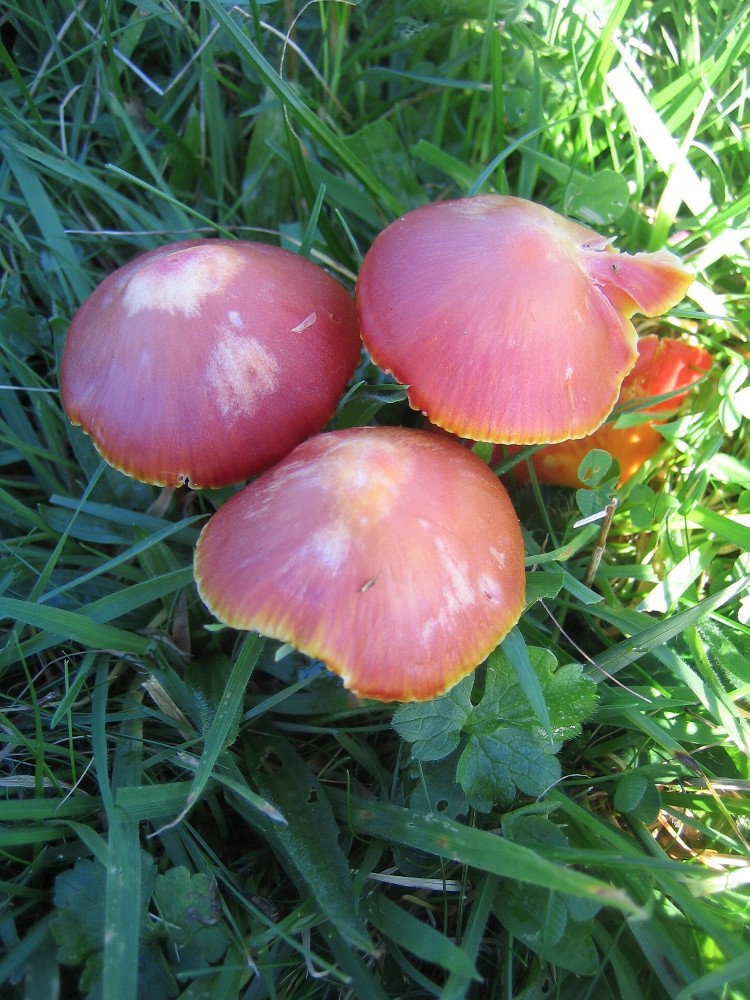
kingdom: Fungi
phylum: Basidiomycota
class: Agaricomycetes
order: Agaricales
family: Hygrophoraceae
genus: Hygrocybe
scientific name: Hygrocybe coccinea
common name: cinnober-vokshat
